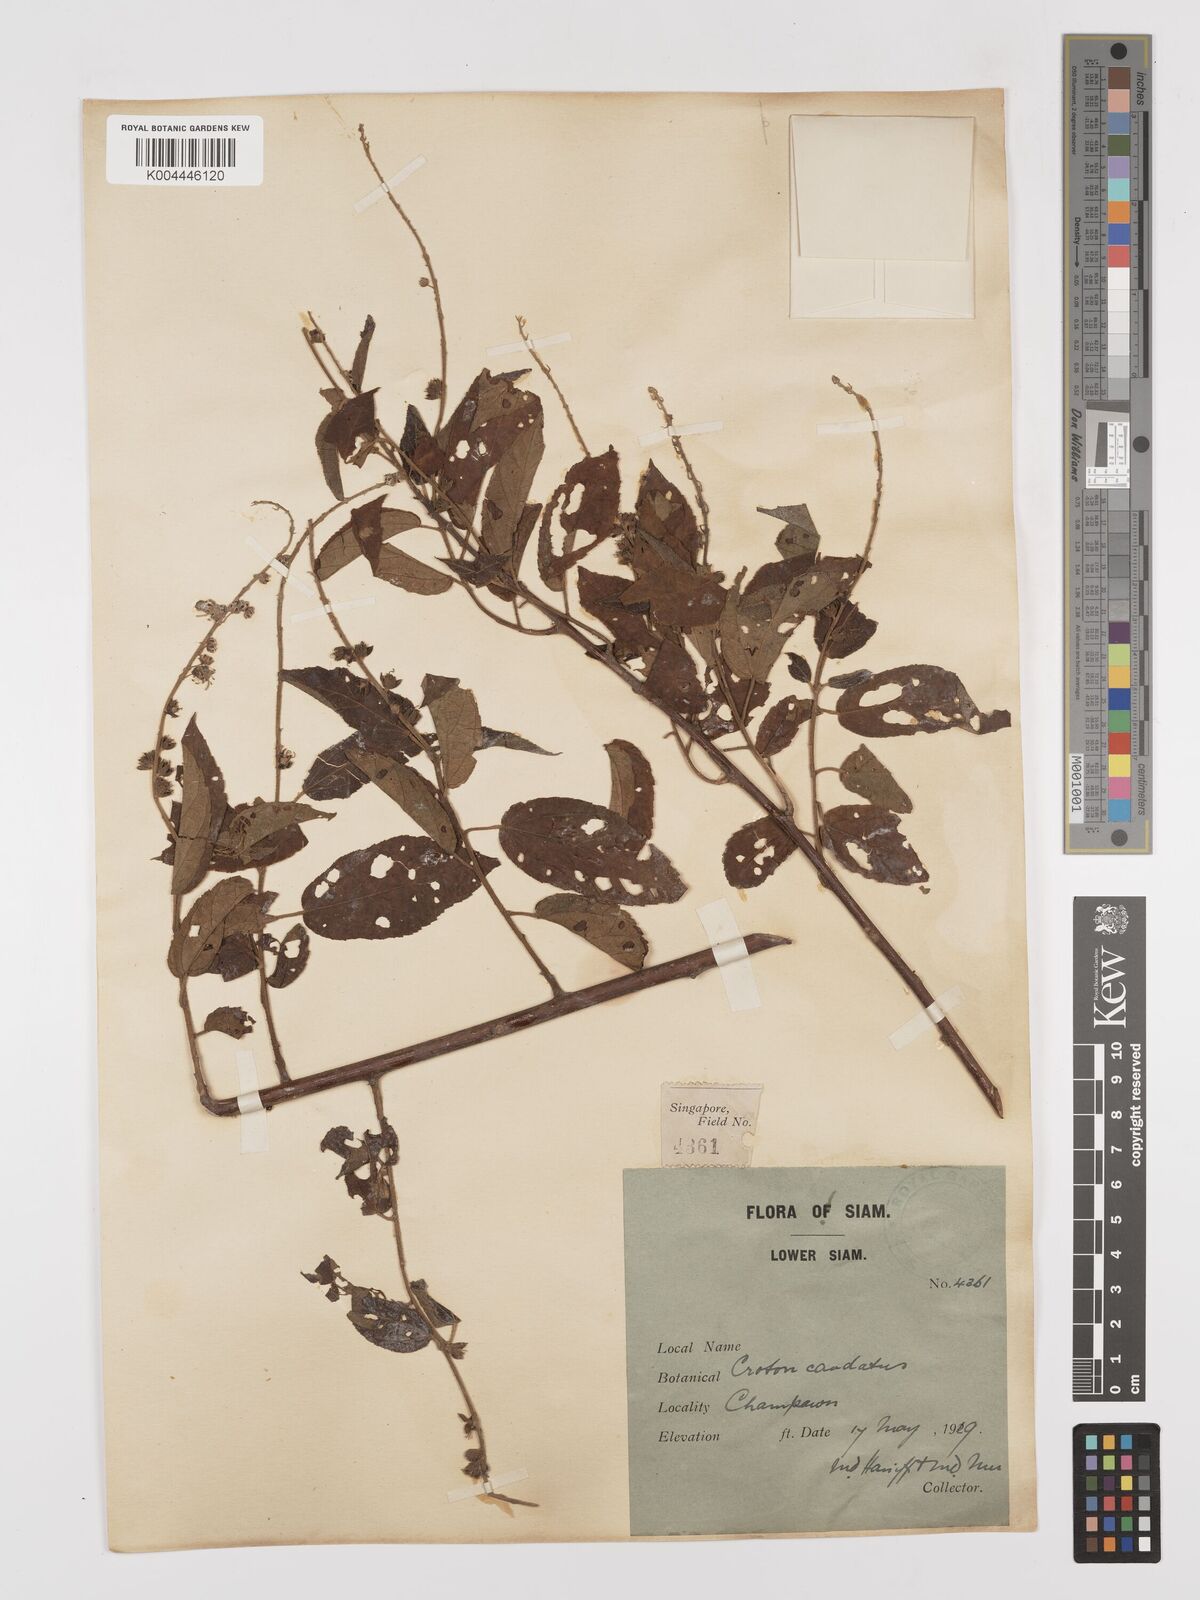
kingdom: Plantae
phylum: Tracheophyta
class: Magnoliopsida
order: Malpighiales
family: Euphorbiaceae
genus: Croton
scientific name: Croton caudatus
